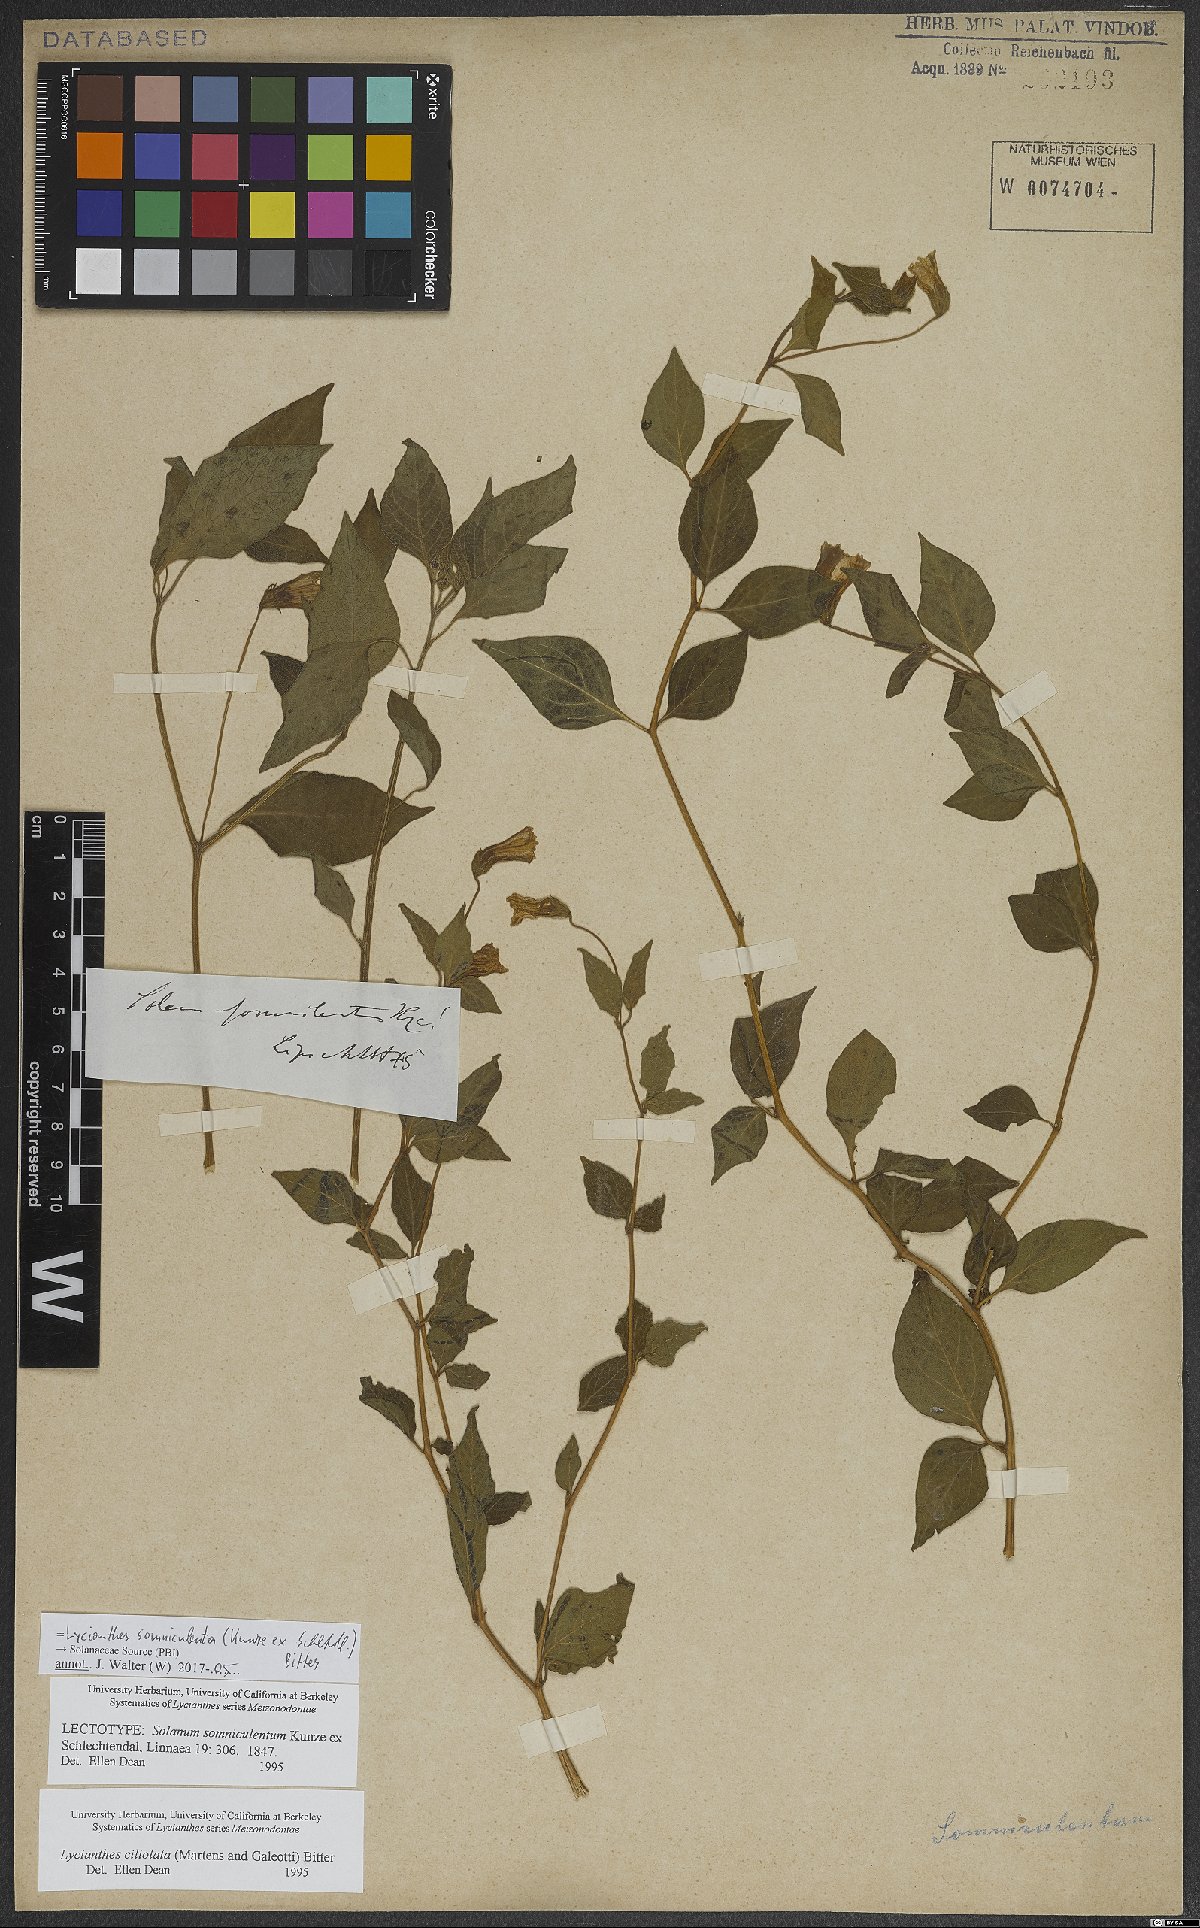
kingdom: Plantae
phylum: Tracheophyta
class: Magnoliopsida
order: Solanales
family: Solanaceae
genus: Lycianthes
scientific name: Lycianthes ciliolata
